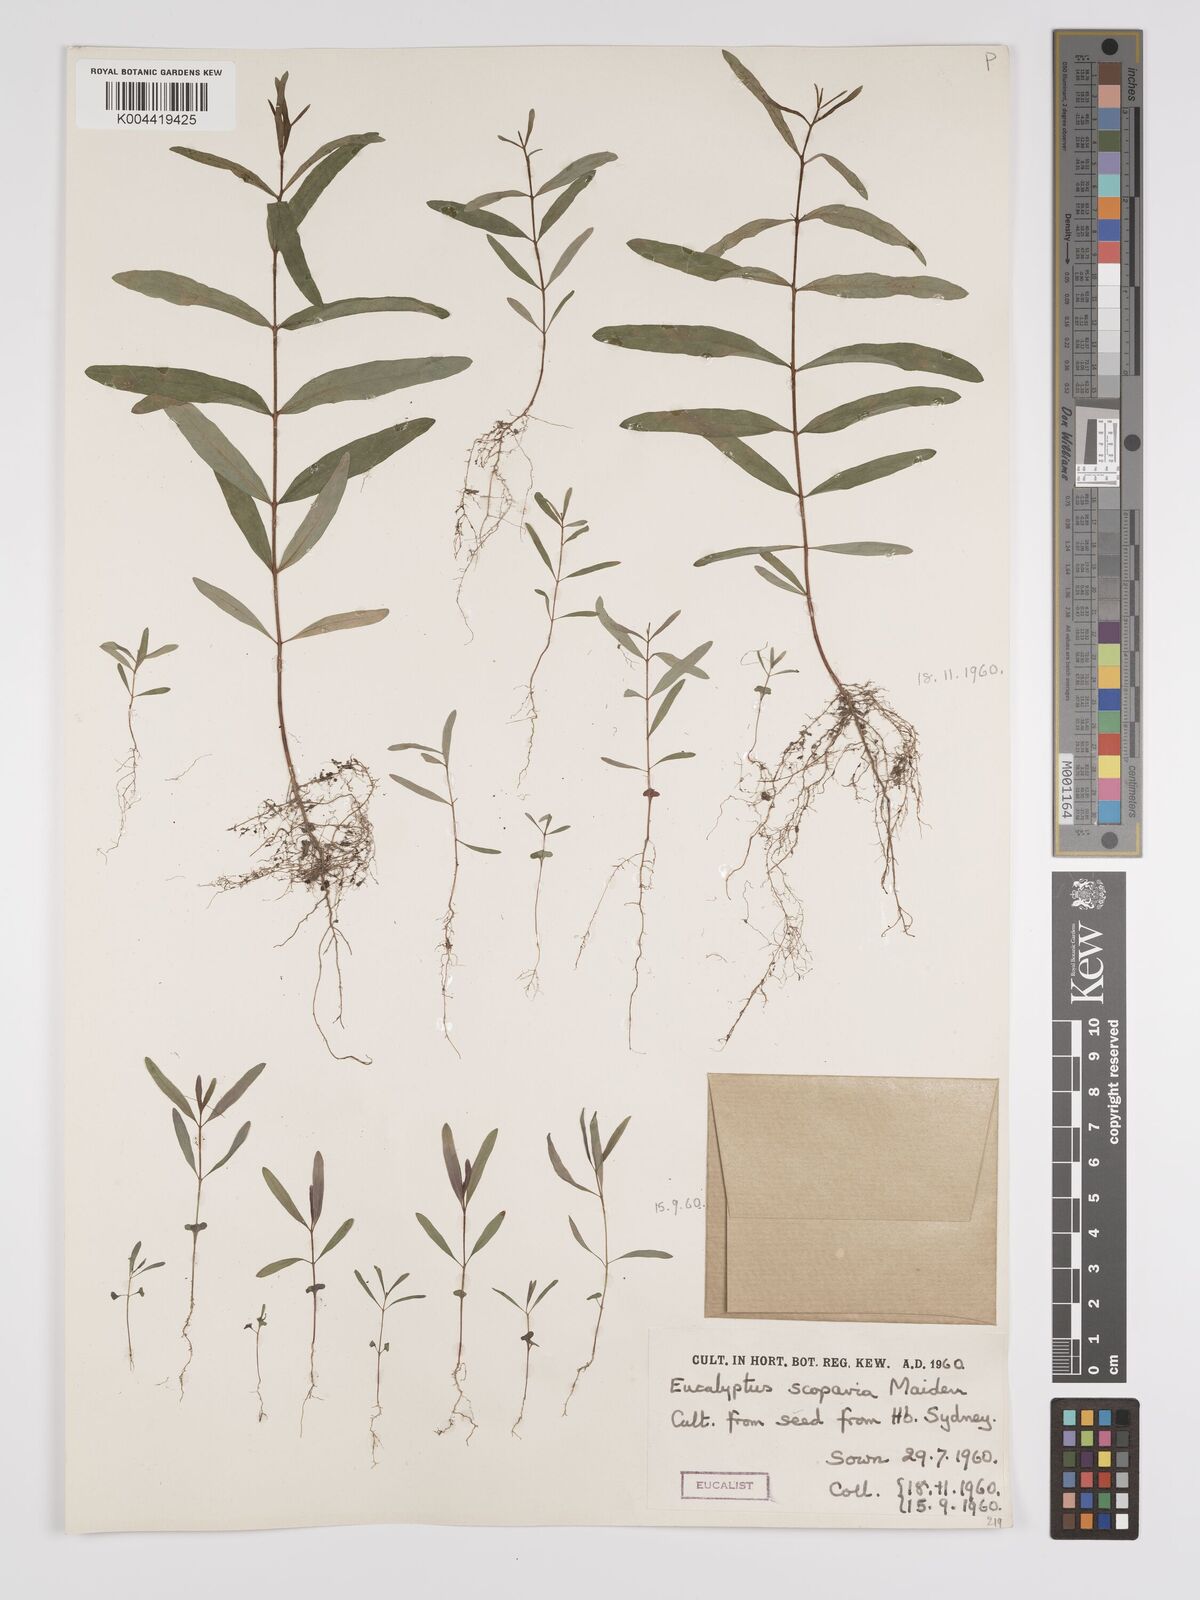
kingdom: Plantae
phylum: Tracheophyta
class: Magnoliopsida
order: Myrtales
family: Myrtaceae
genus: Eucalyptus
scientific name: Eucalyptus scoparia
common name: Wallangarra white gum
